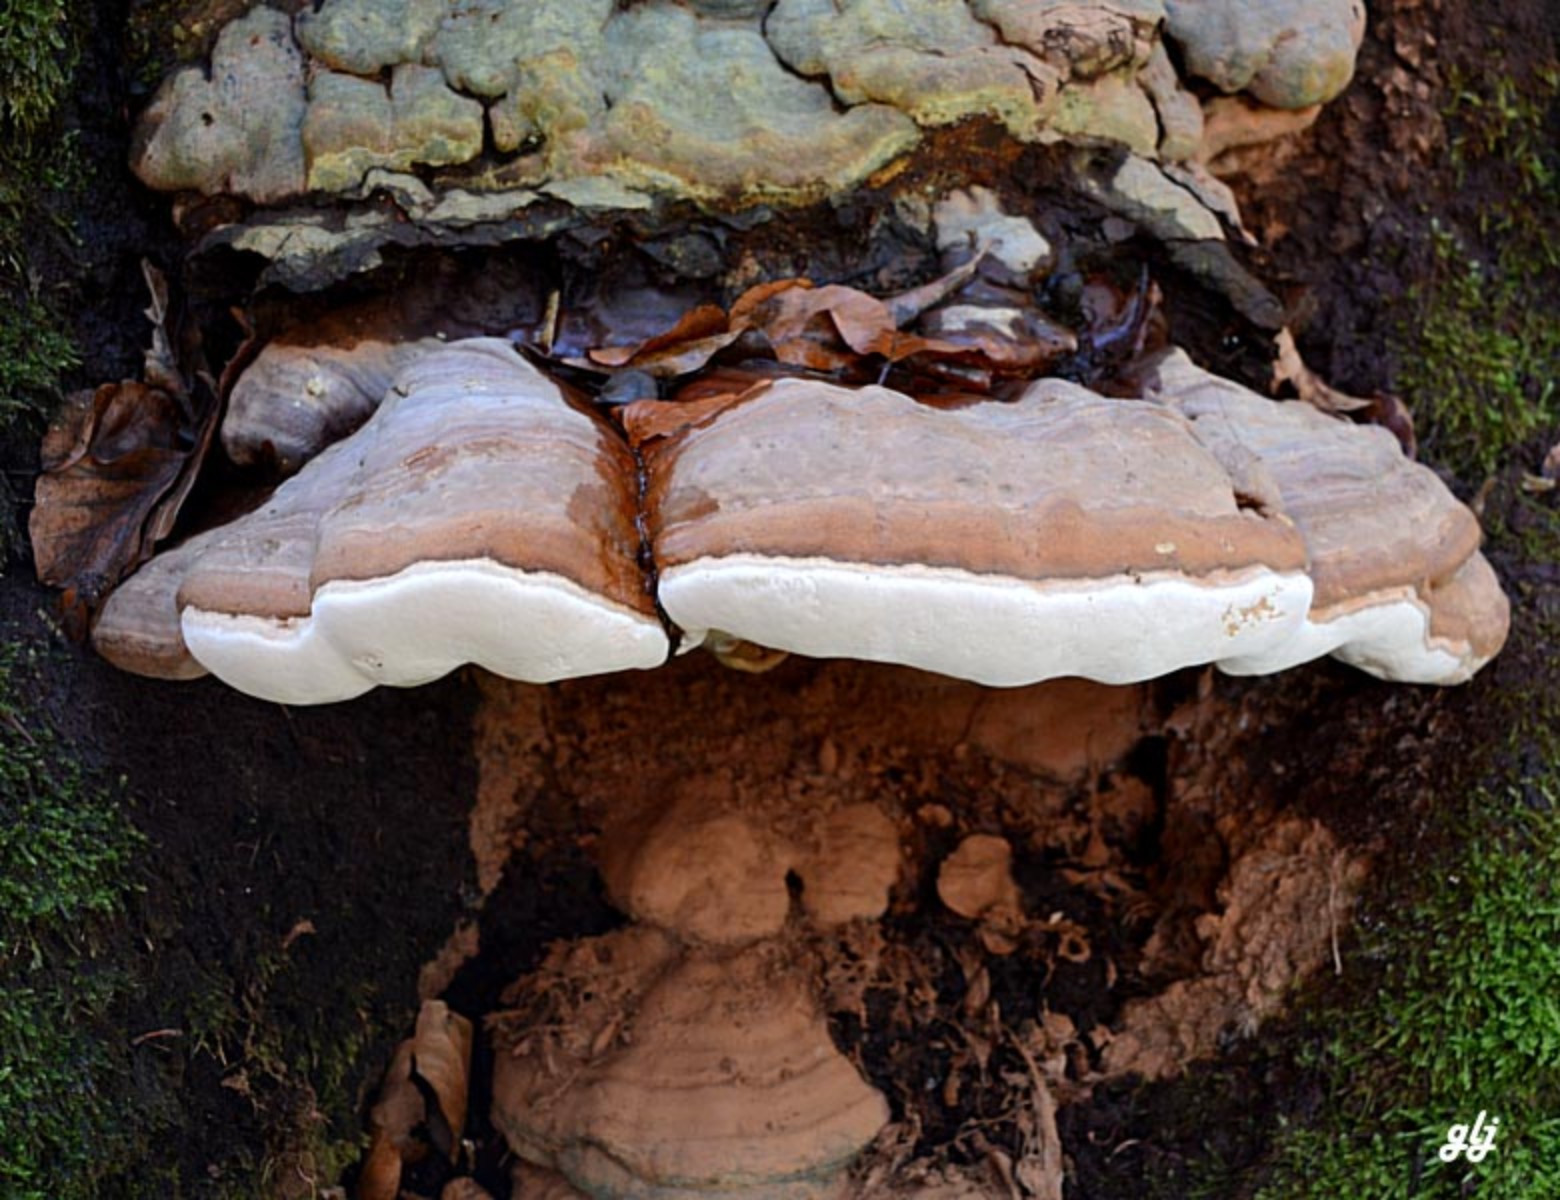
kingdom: Fungi
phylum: Basidiomycota
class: Agaricomycetes
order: Polyporales
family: Polyporaceae
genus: Ganoderma
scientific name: Ganoderma pfeifferi
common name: kobberrød lakporesvamp
